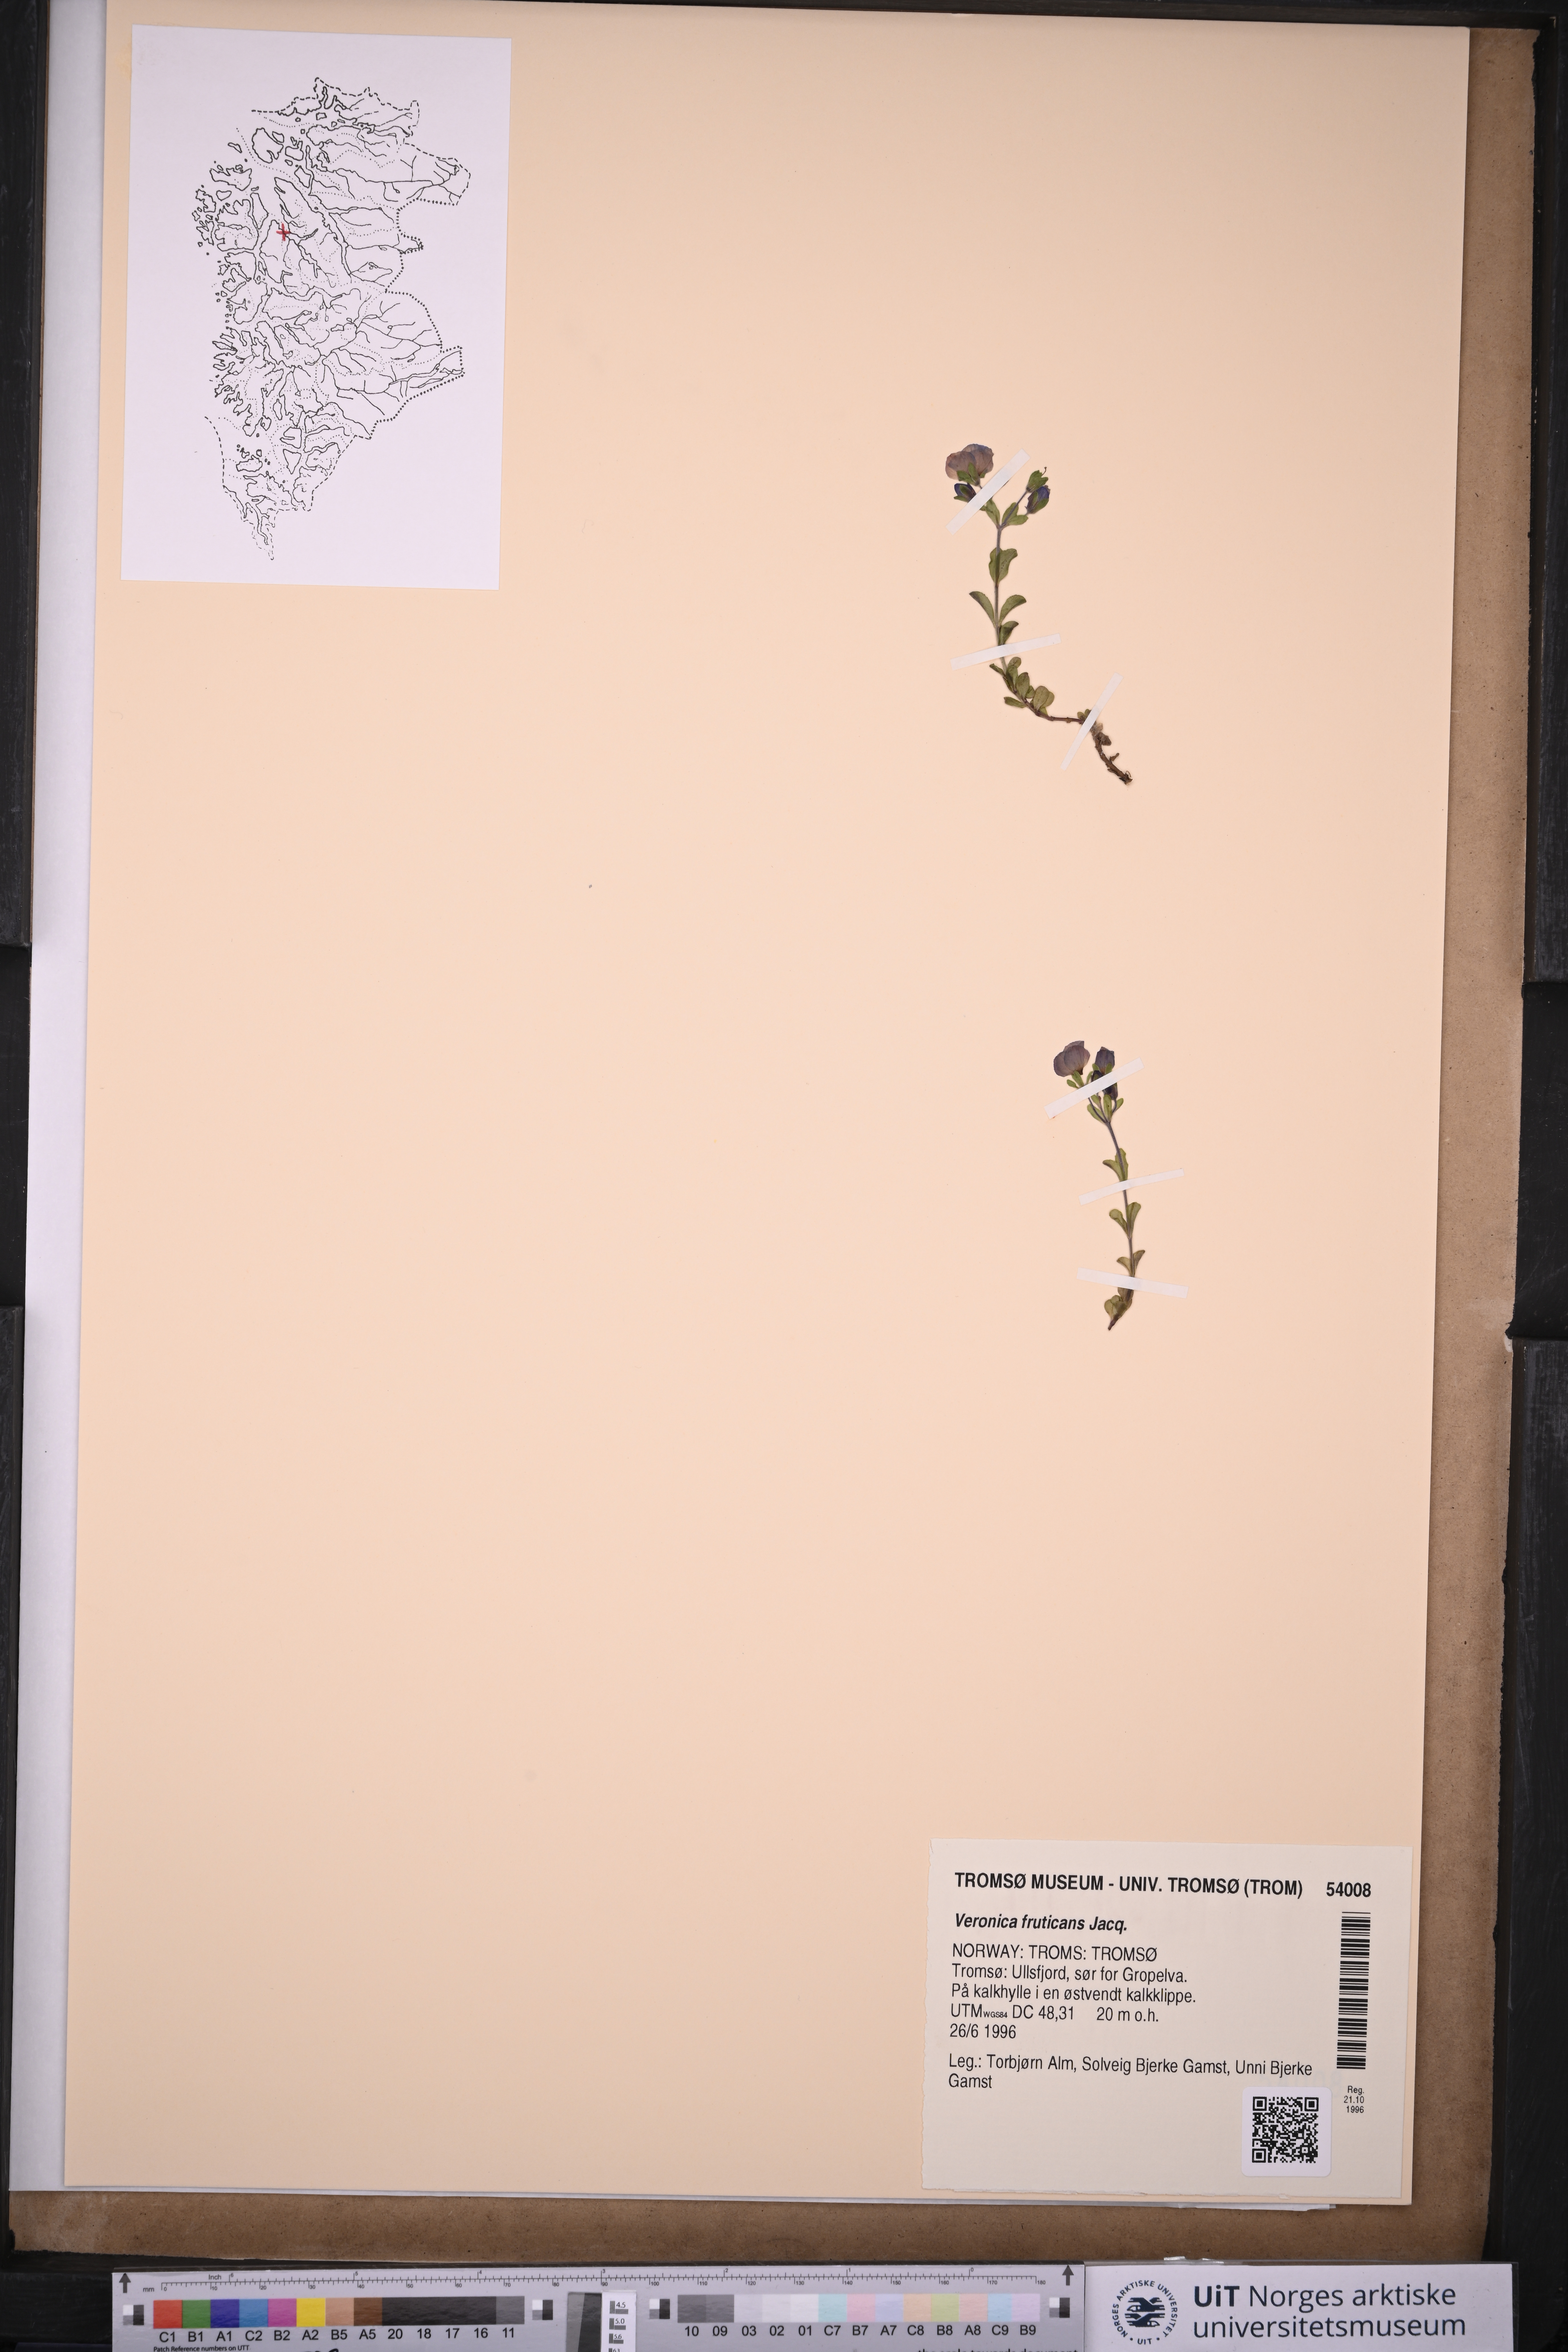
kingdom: Plantae
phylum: Tracheophyta
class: Magnoliopsida
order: Lamiales
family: Plantaginaceae
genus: Veronica
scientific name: Veronica fruticans
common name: Rock speedwell
